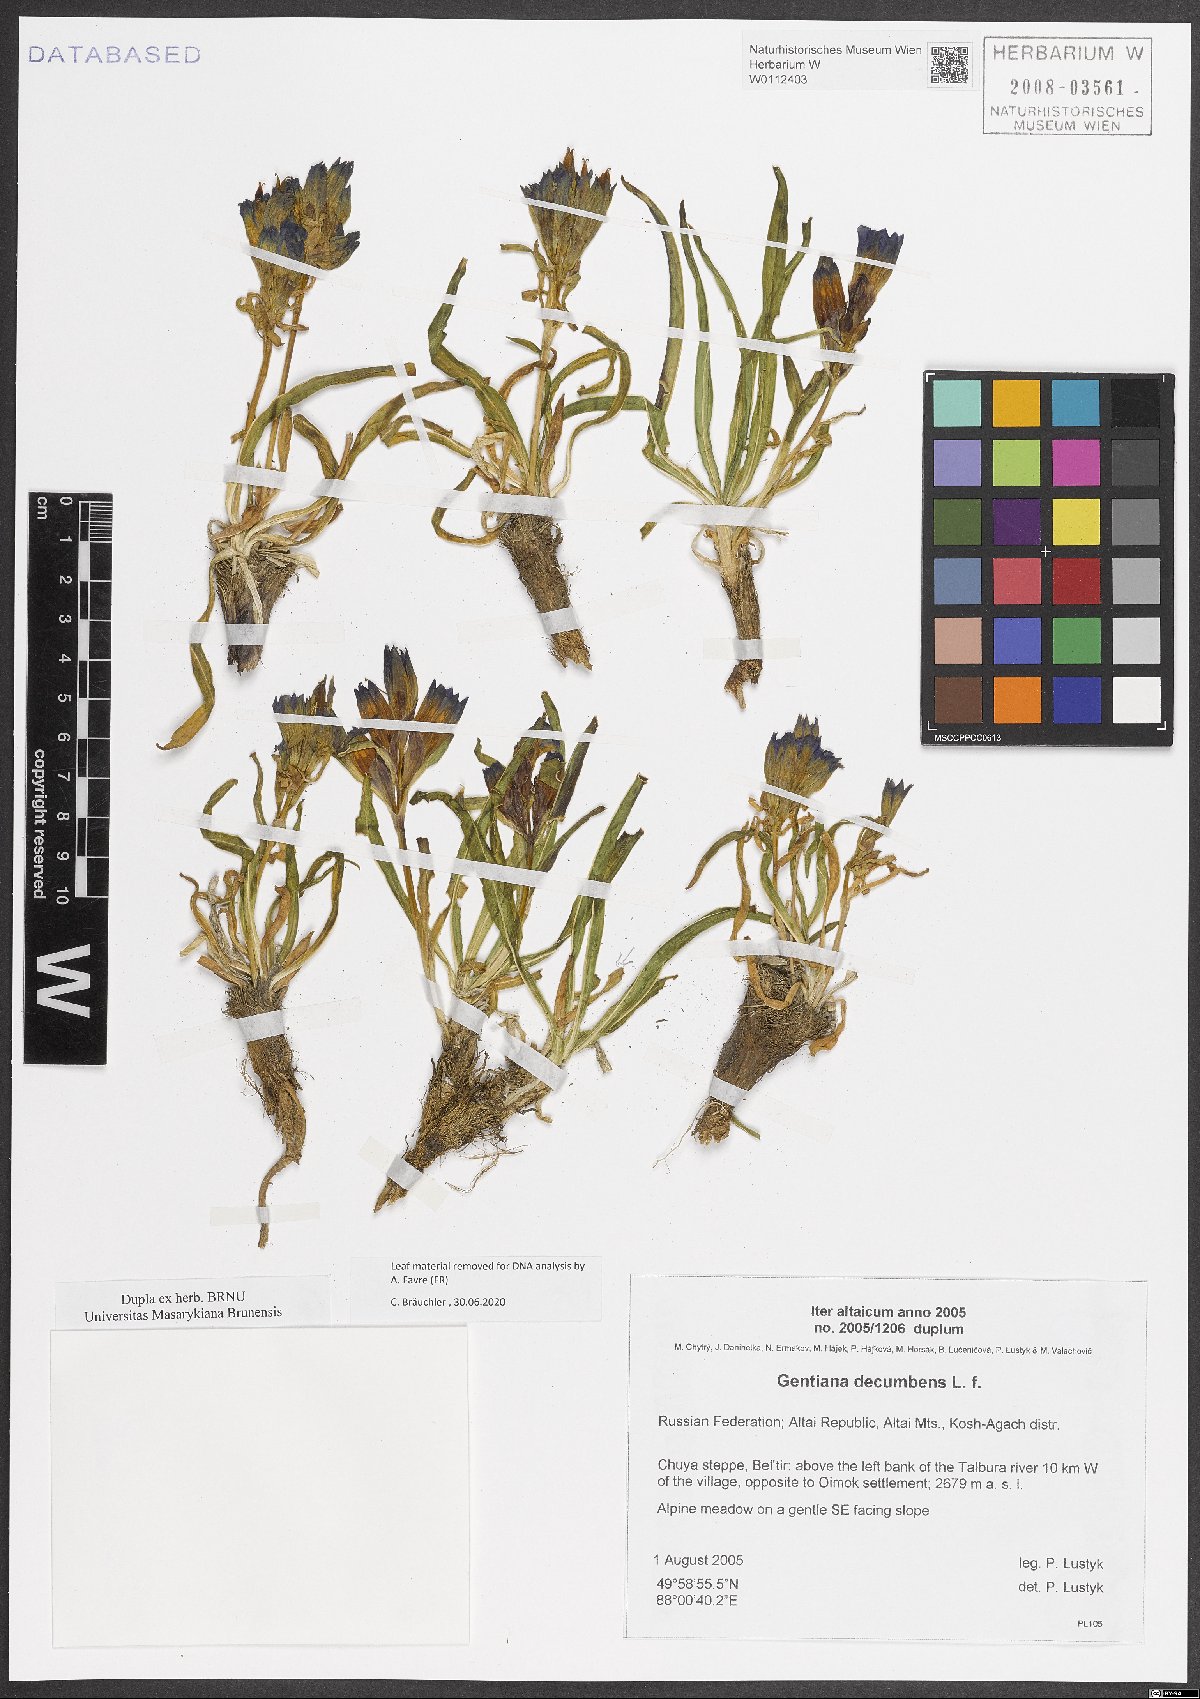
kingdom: Plantae
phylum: Tracheophyta
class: Magnoliopsida
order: Gentianales
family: Gentianaceae
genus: Gentiana
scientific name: Gentiana decumbens
